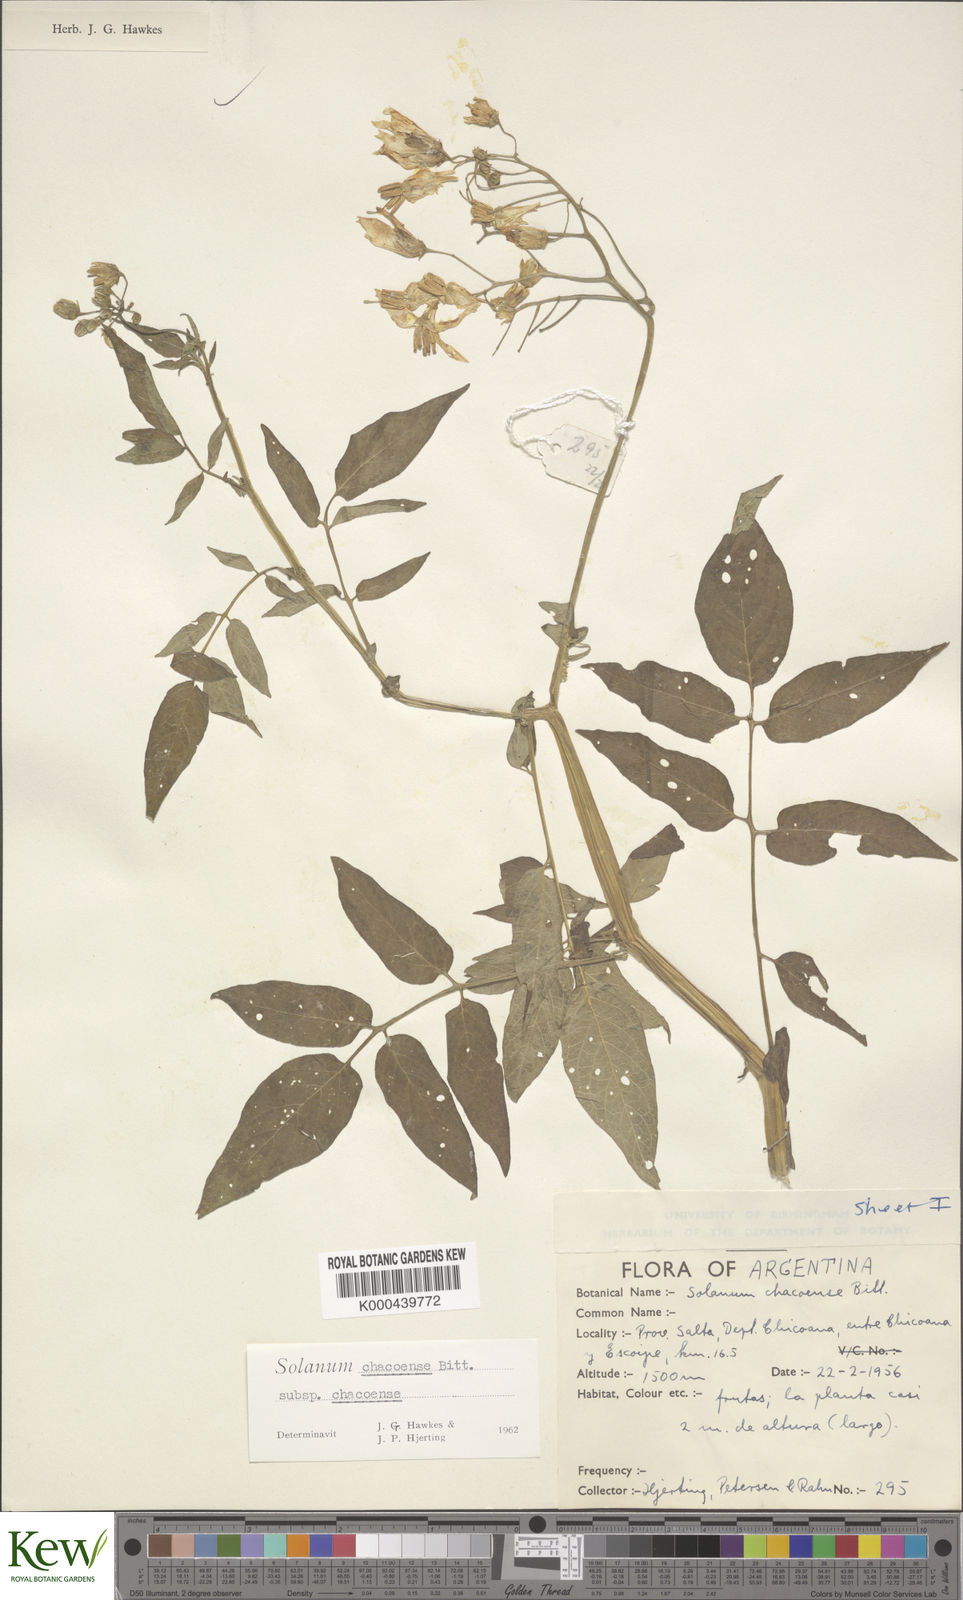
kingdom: Plantae
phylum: Tracheophyta
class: Magnoliopsida
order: Solanales
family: Solanaceae
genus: Solanum
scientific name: Solanum chacoense
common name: Chaco potato
